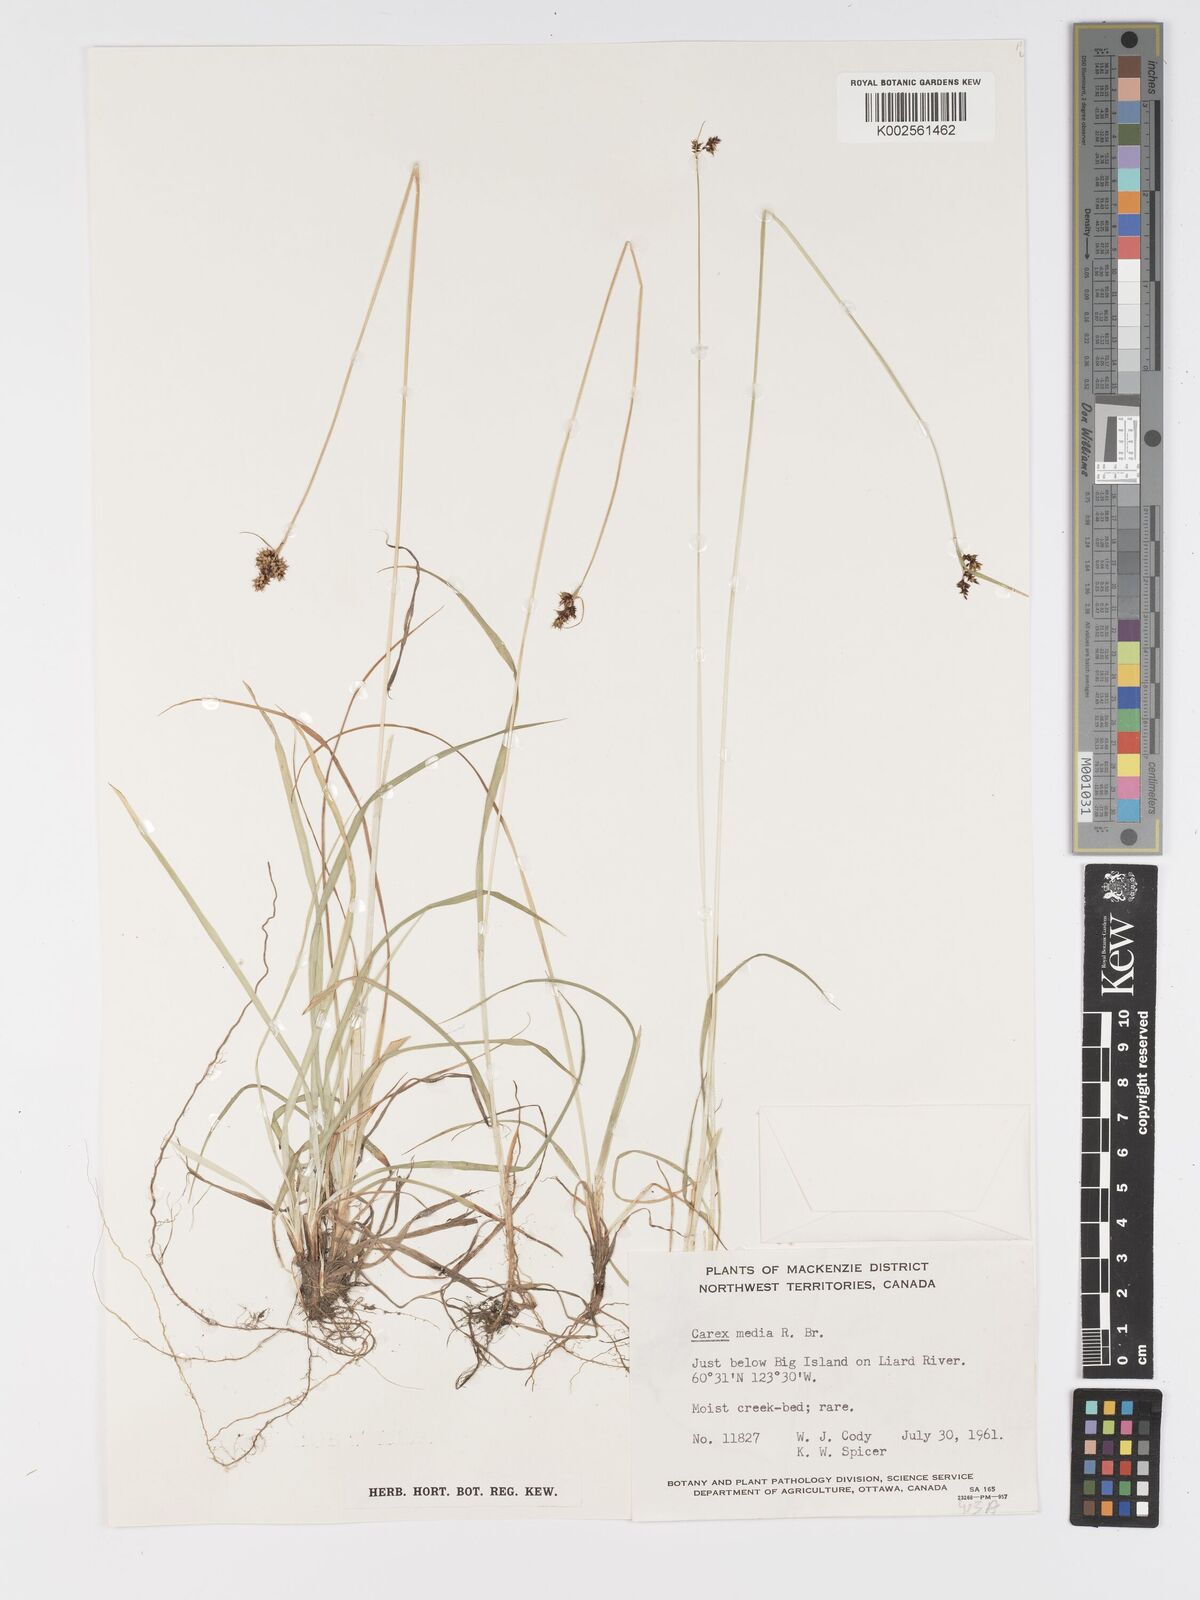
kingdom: Plantae
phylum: Tracheophyta
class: Liliopsida
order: Poales
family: Cyperaceae
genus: Carex
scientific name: Carex media
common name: Alpine sedge
